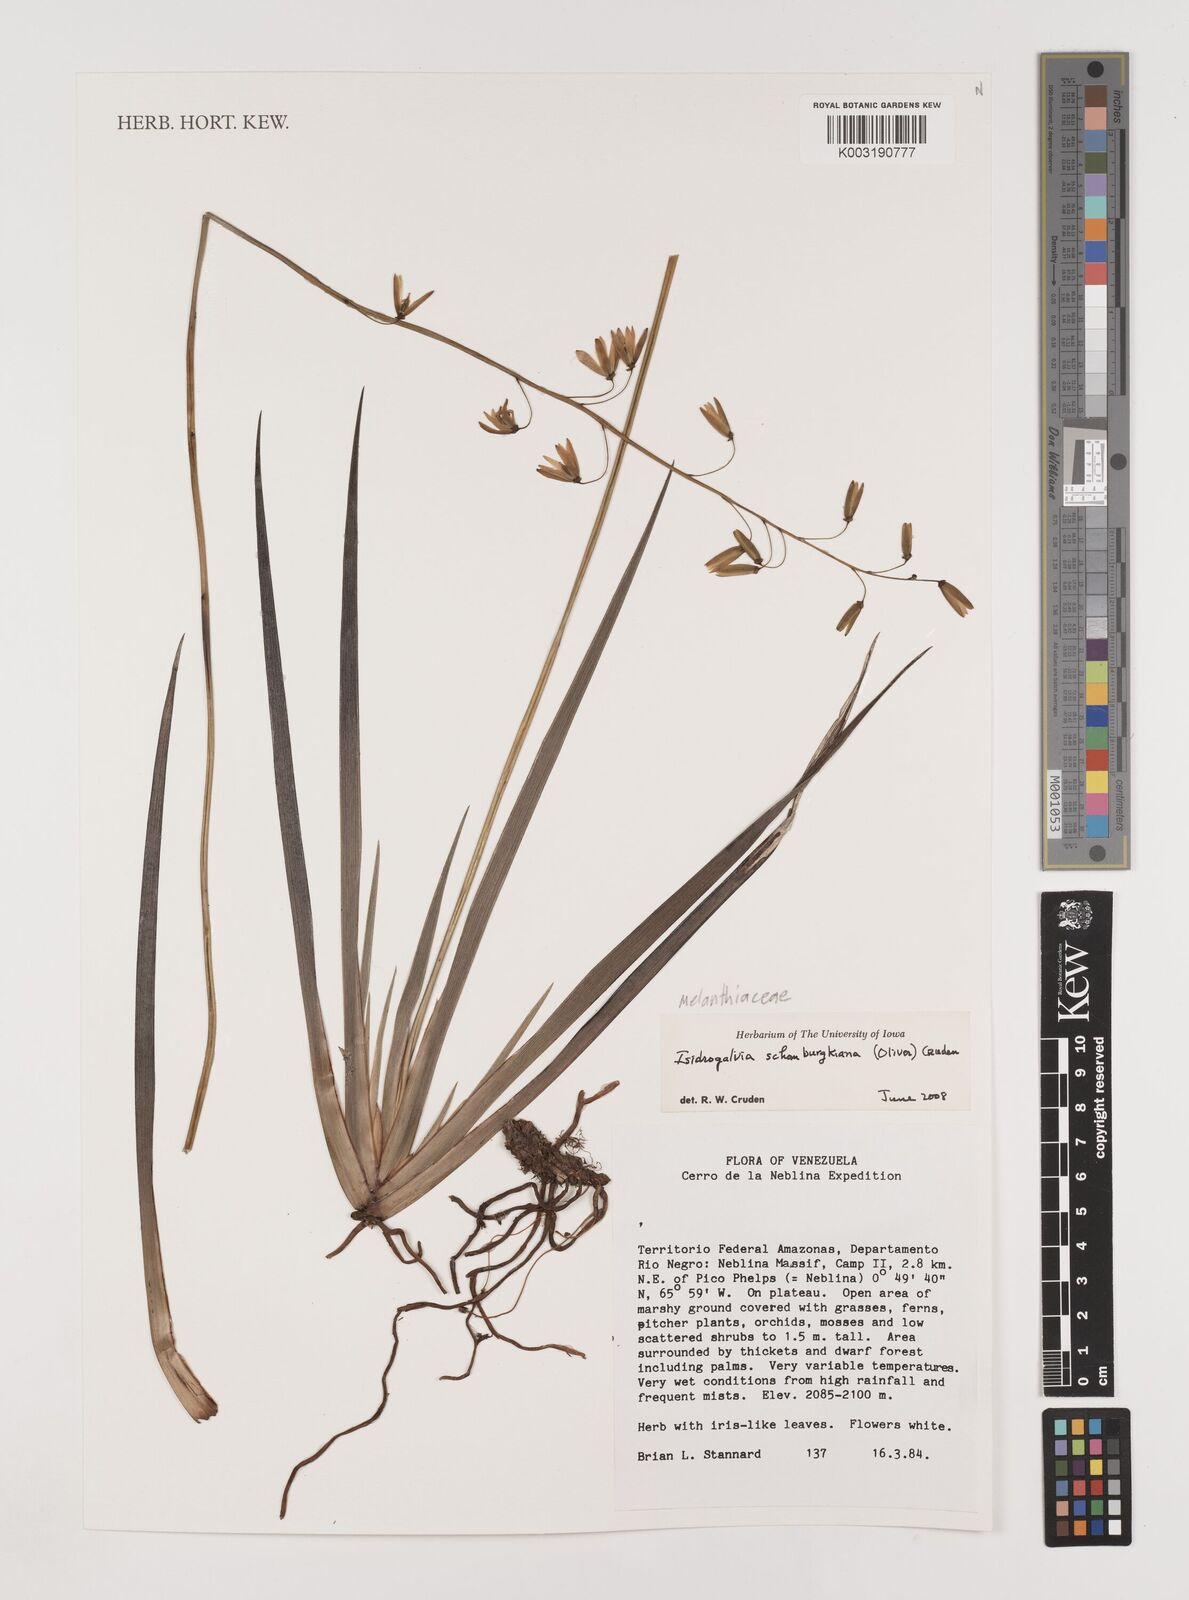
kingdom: Plantae
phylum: Tracheophyta
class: Liliopsida
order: Alismatales
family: Tofieldiaceae
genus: Harperocallis
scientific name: Harperocallis schomburgkiana
